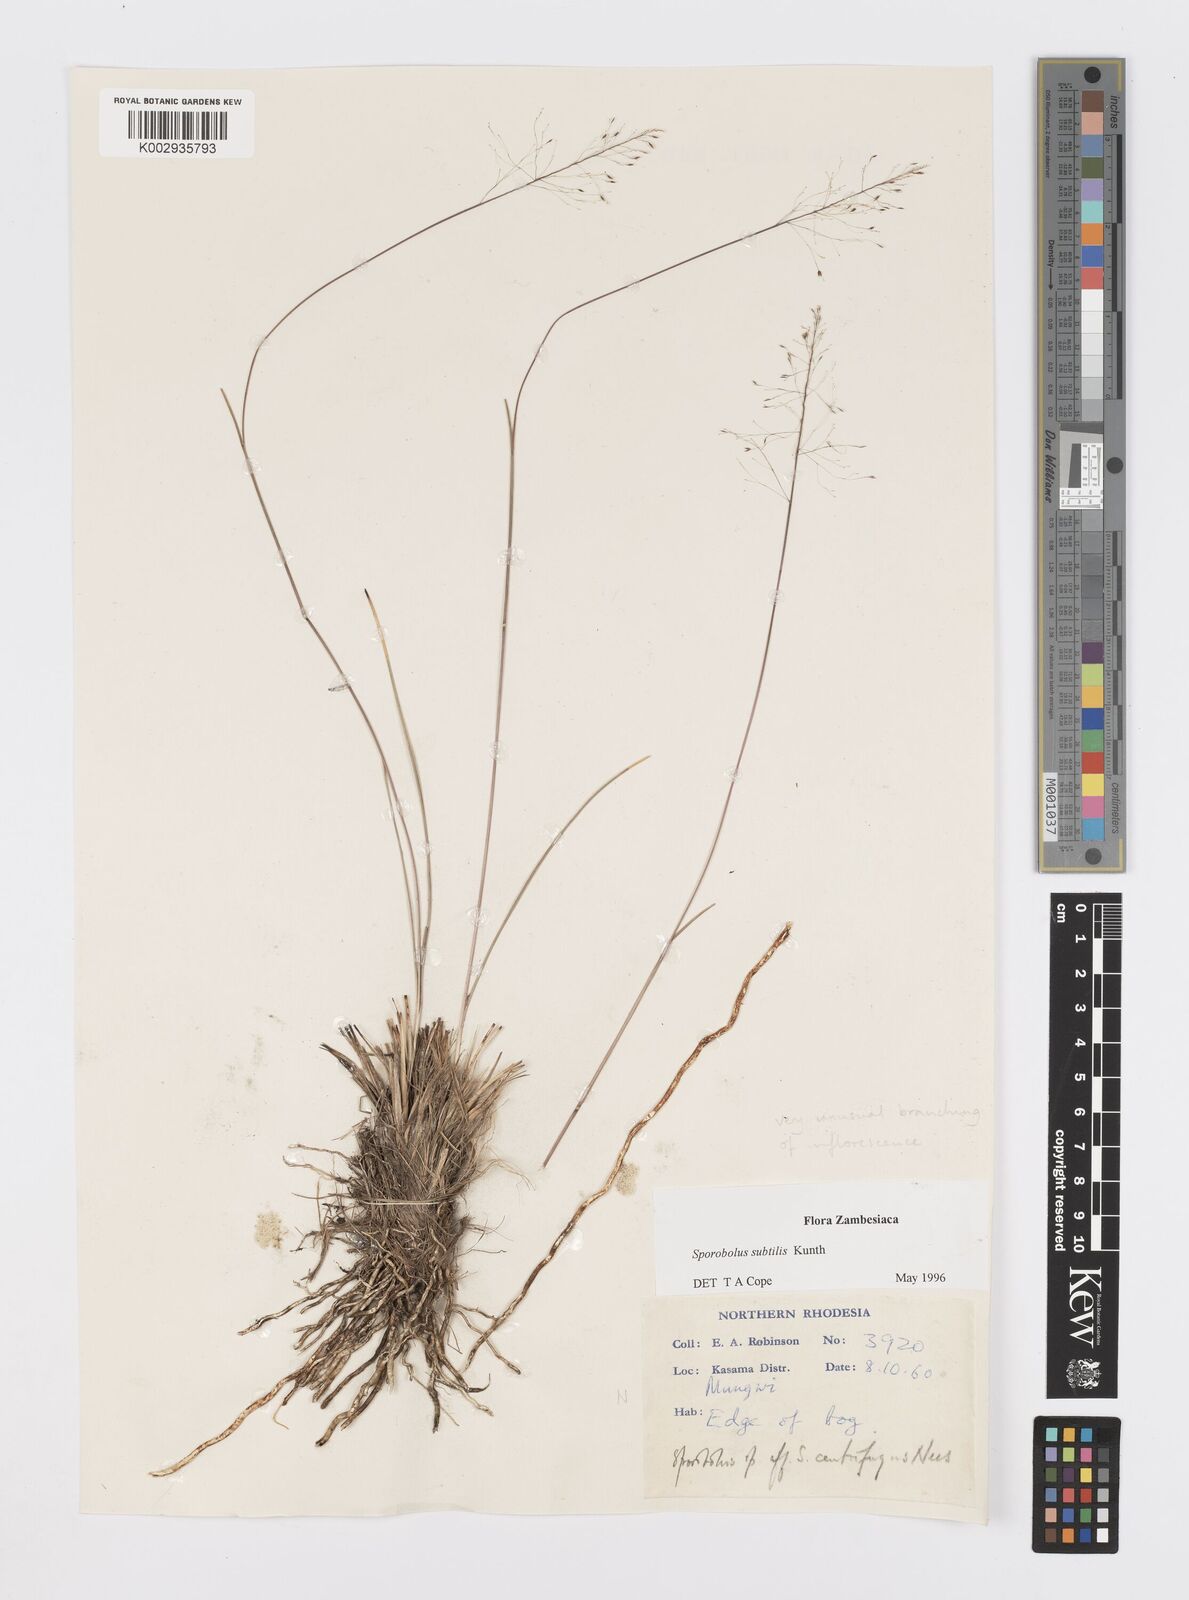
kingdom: Plantae
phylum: Tracheophyta
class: Liliopsida
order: Poales
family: Poaceae
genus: Sporobolus
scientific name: Sporobolus subtilis
